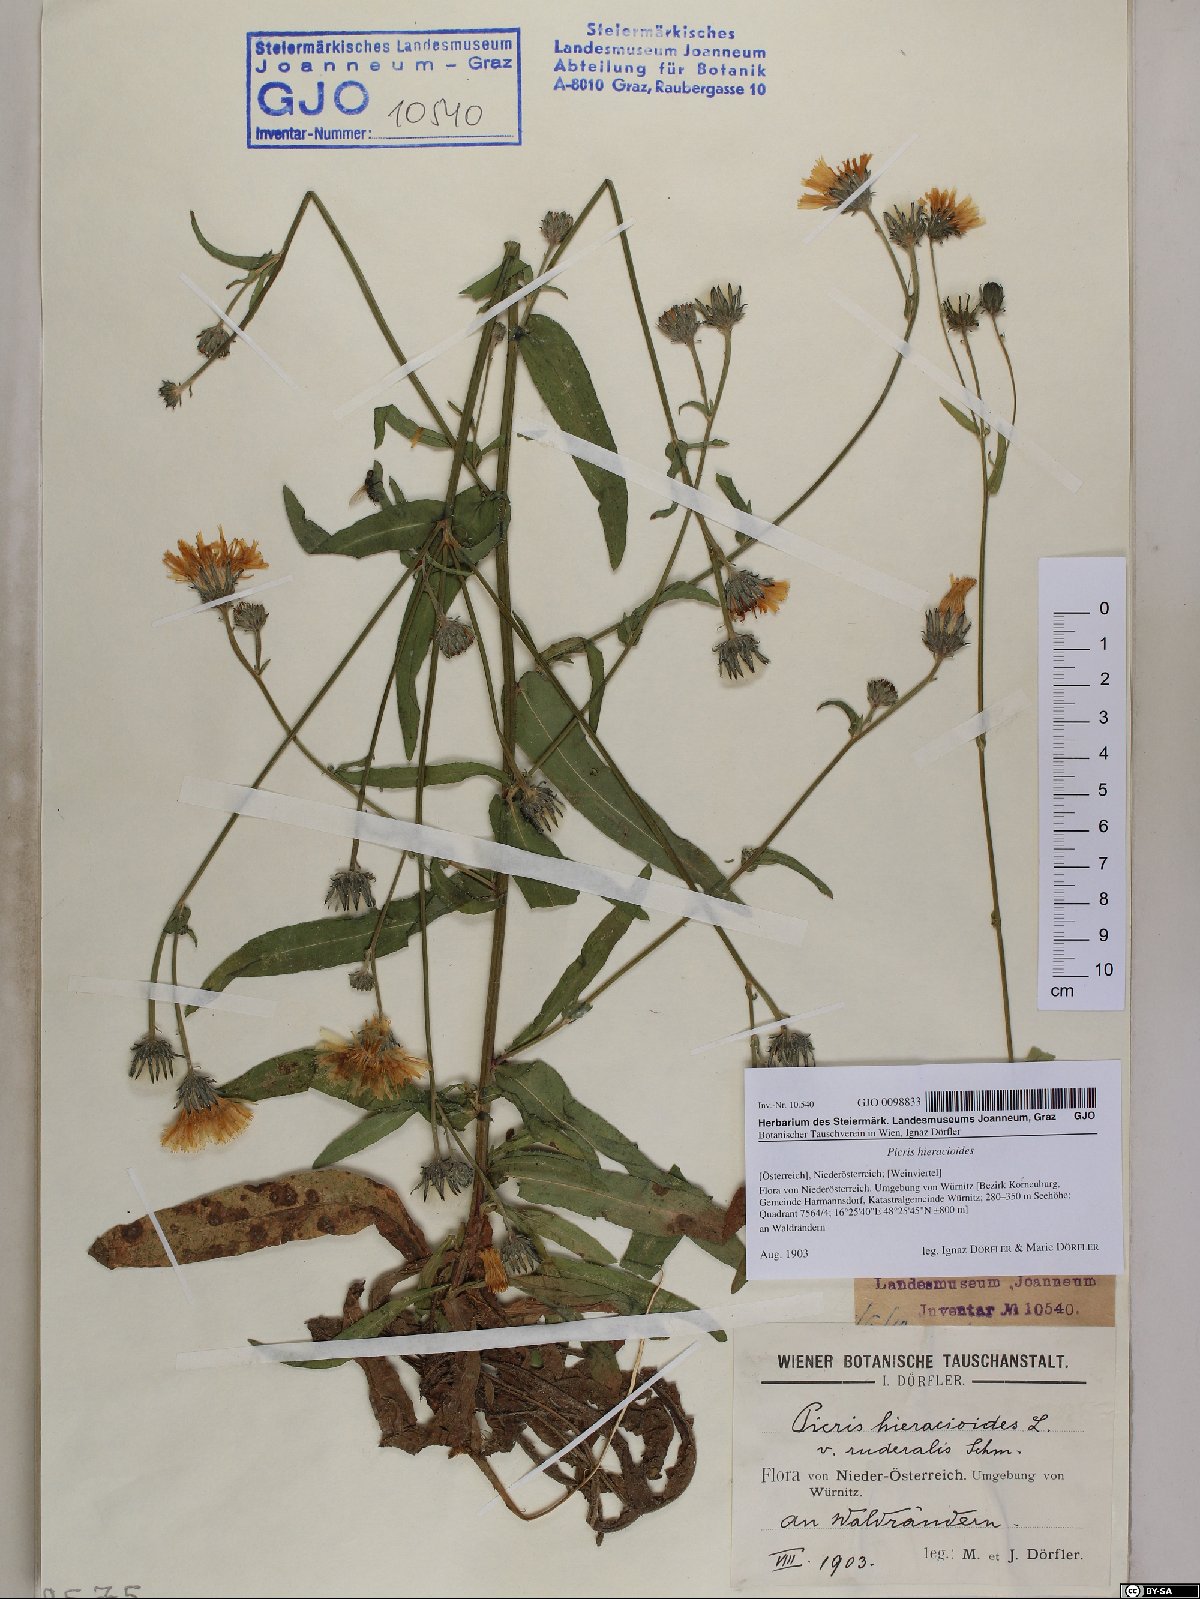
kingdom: Plantae
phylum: Tracheophyta
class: Magnoliopsida
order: Asterales
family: Asteraceae
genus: Picris
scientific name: Picris hieracioides
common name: Hawkweed oxtongue
